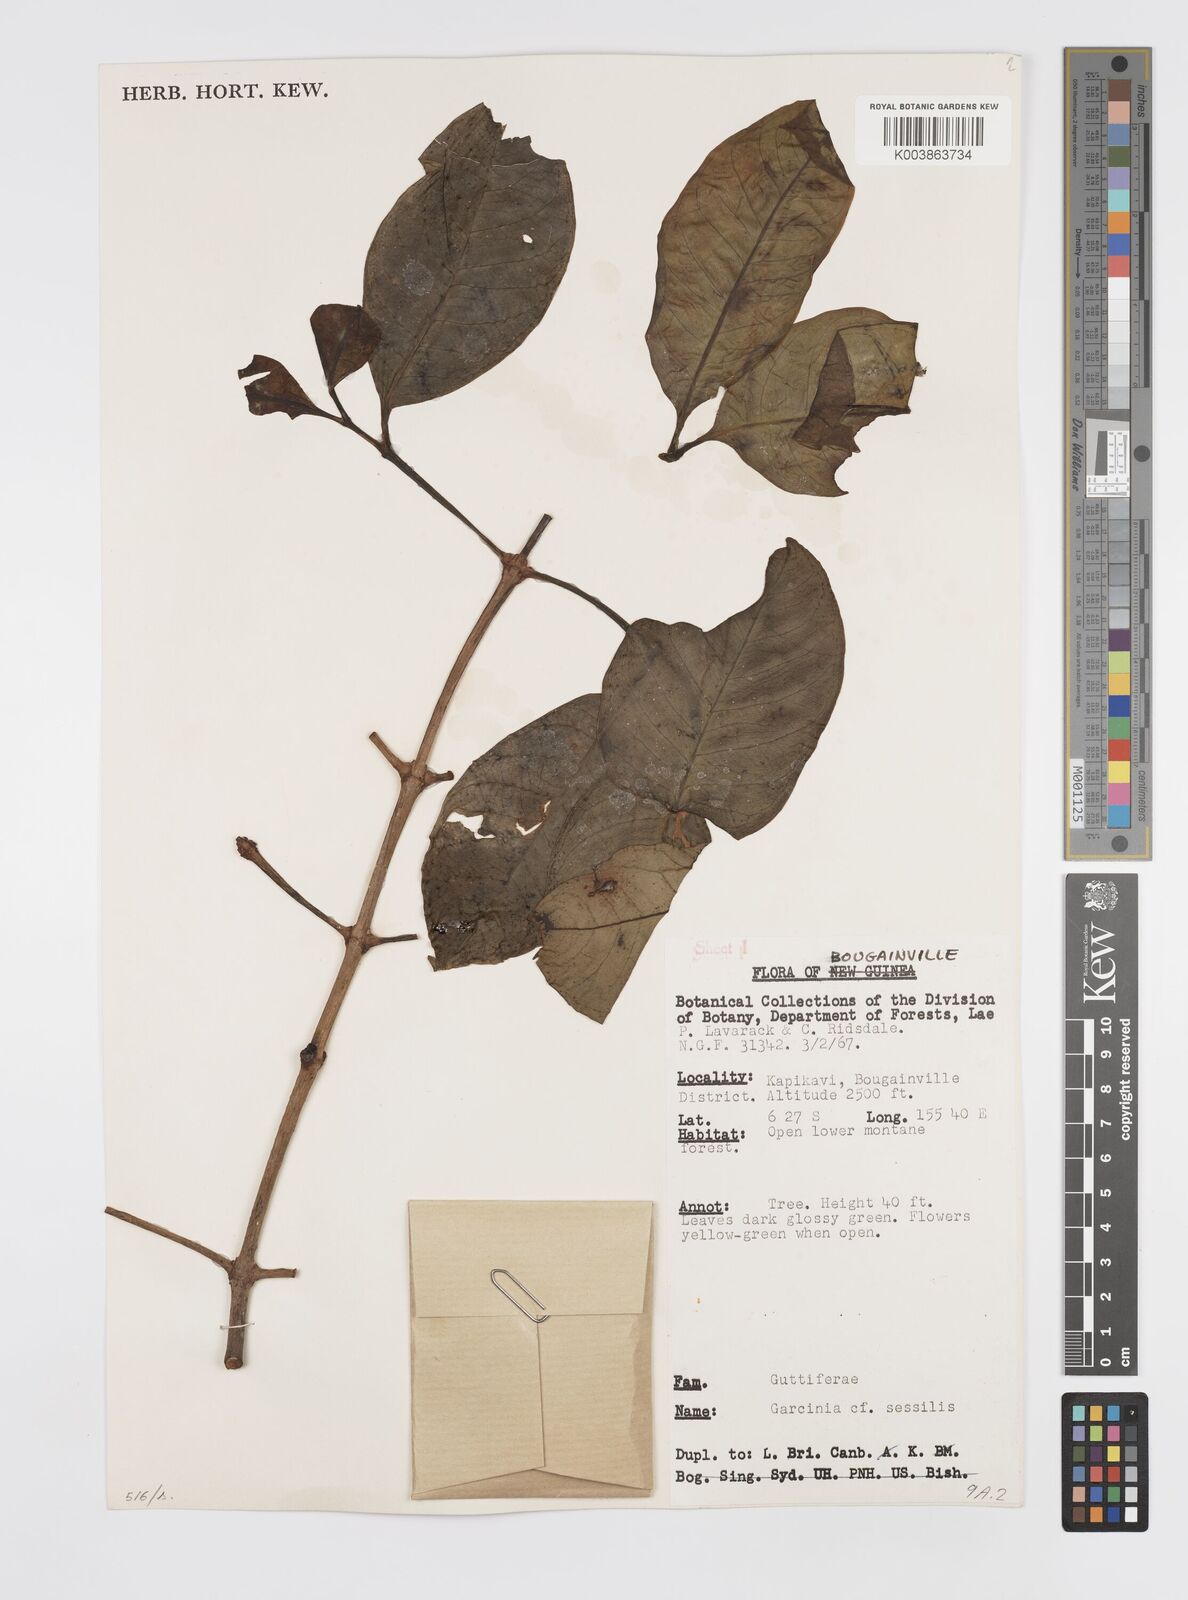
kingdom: Plantae
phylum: Tracheophyta
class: Magnoliopsida
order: Malpighiales
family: Clusiaceae
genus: Garcinia
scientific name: Garcinia sessilis
